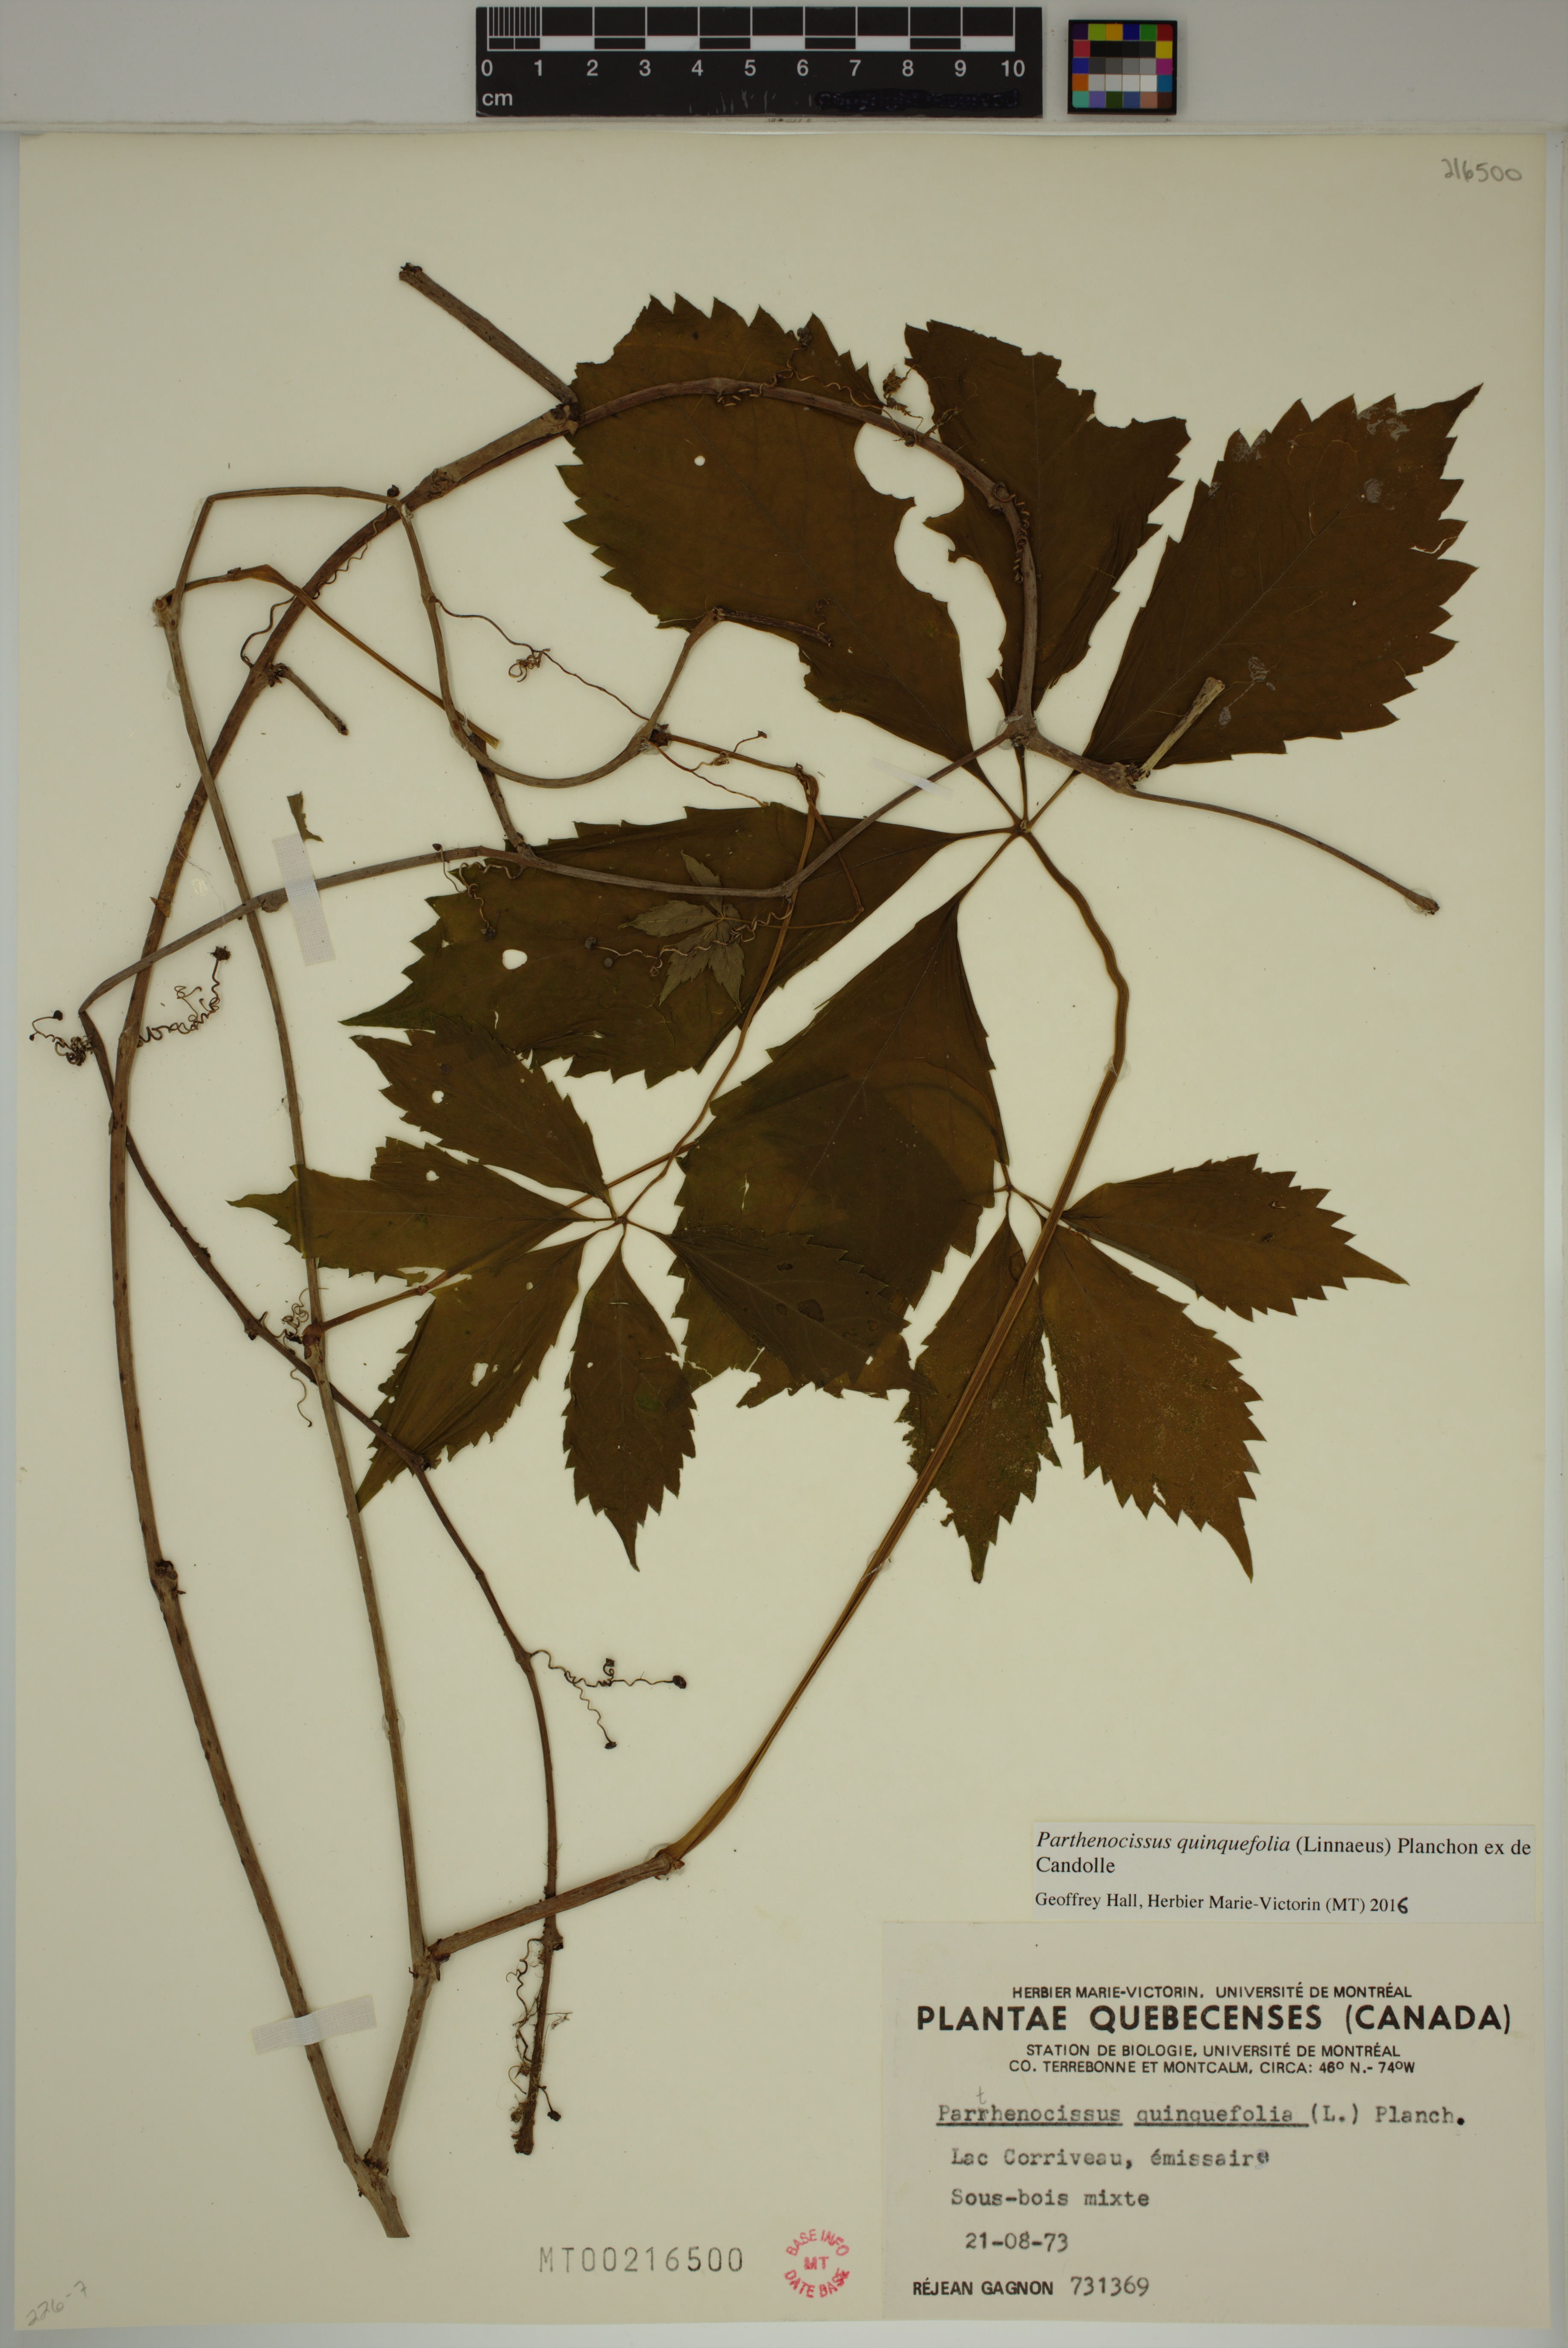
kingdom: Plantae
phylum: Tracheophyta
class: Magnoliopsida
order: Vitales
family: Vitaceae
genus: Parthenocissus
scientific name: Parthenocissus quinquefolia
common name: Virginia-creeper
